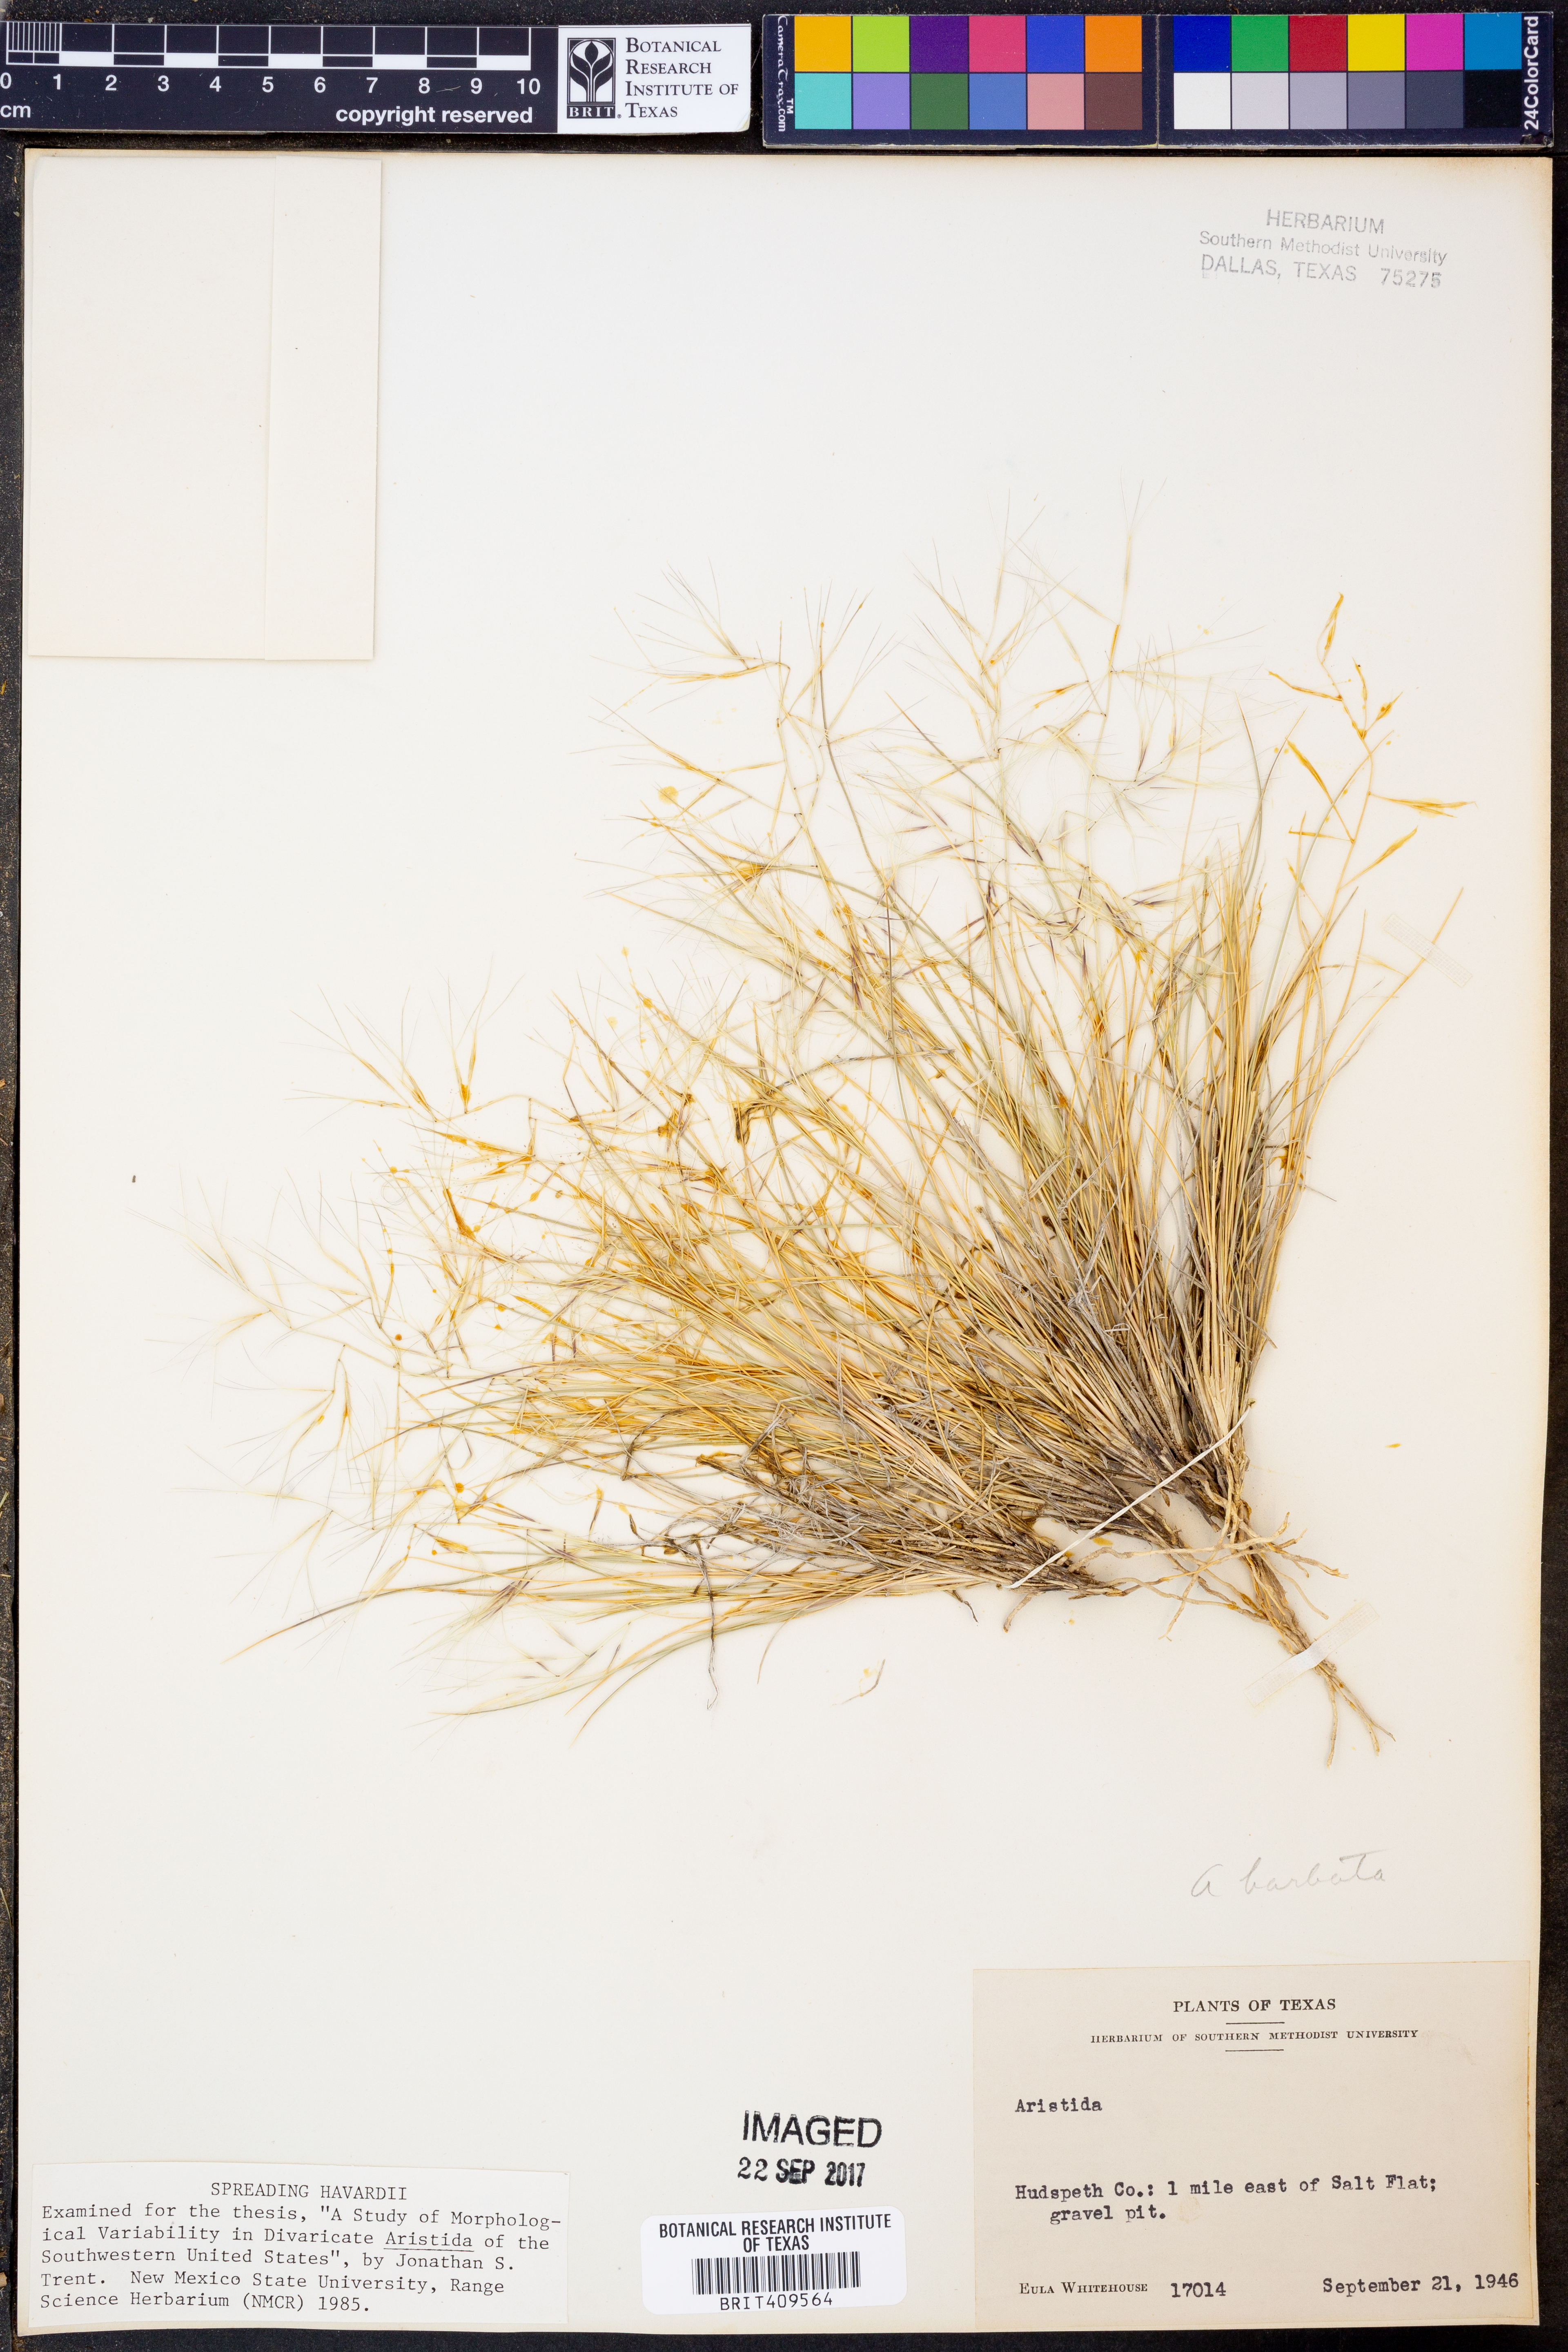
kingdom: Plantae
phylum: Tracheophyta
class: Liliopsida
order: Poales
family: Poaceae
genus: Aristida
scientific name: Aristida
